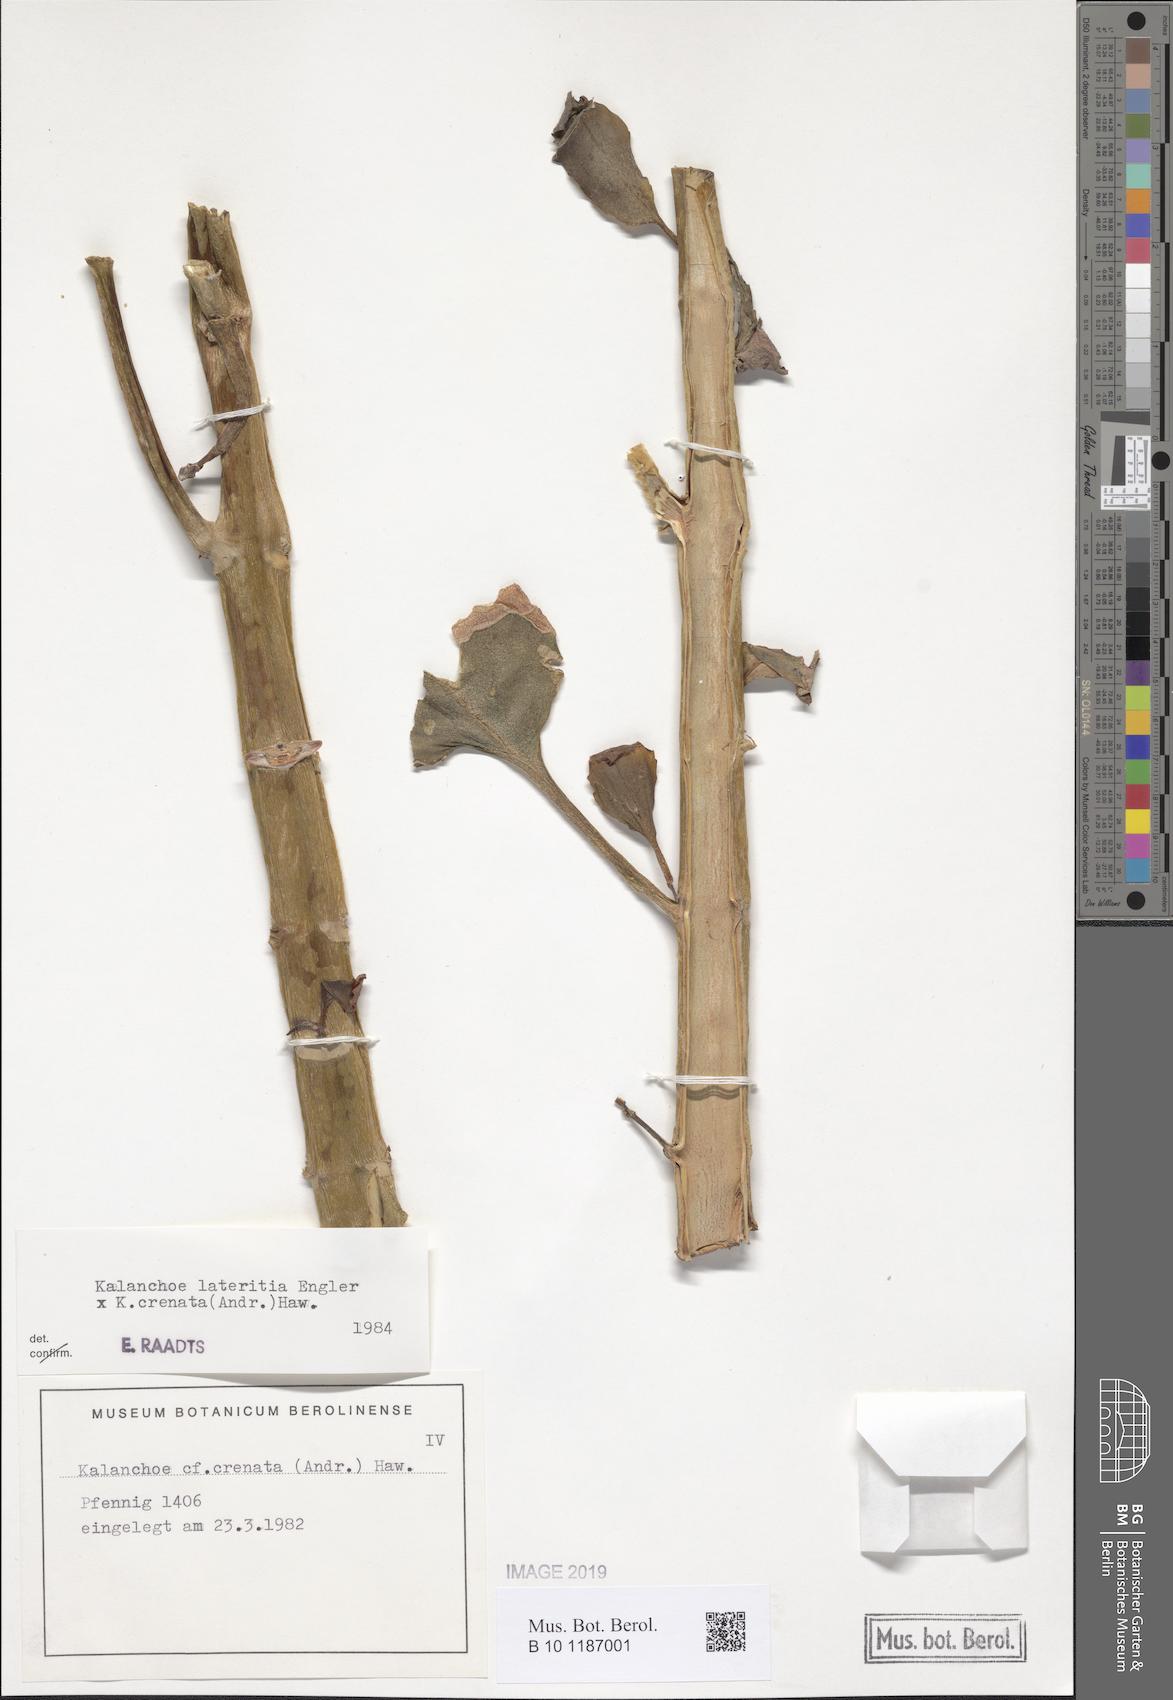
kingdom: Plantae
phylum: Tracheophyta
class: Magnoliopsida
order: Saxifragales
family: Crassulaceae
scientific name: Crassulaceae
